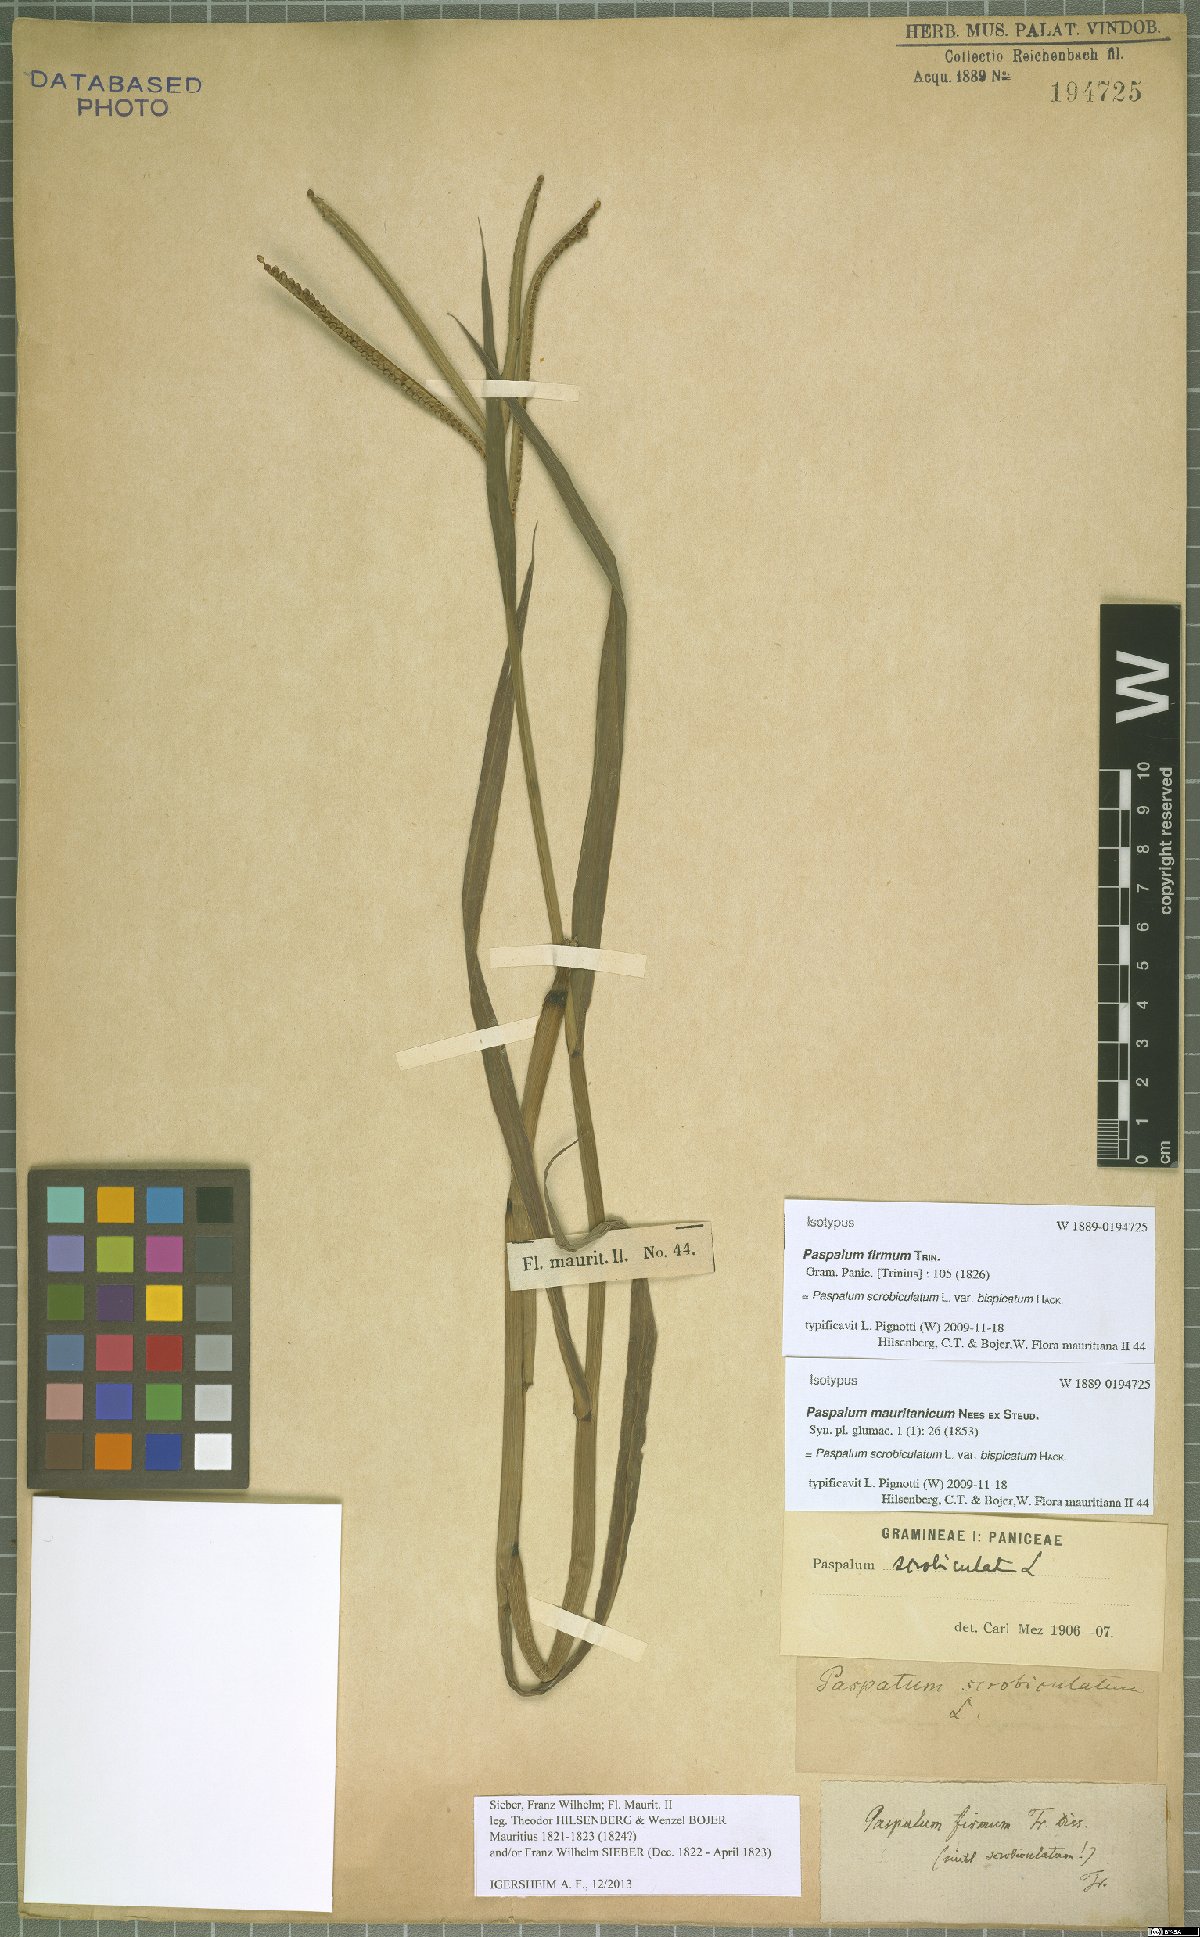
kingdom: Plantae
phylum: Tracheophyta
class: Liliopsida
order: Poales
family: Poaceae
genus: Paspalum
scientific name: Paspalum scrobiculatum
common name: Kodo millet
